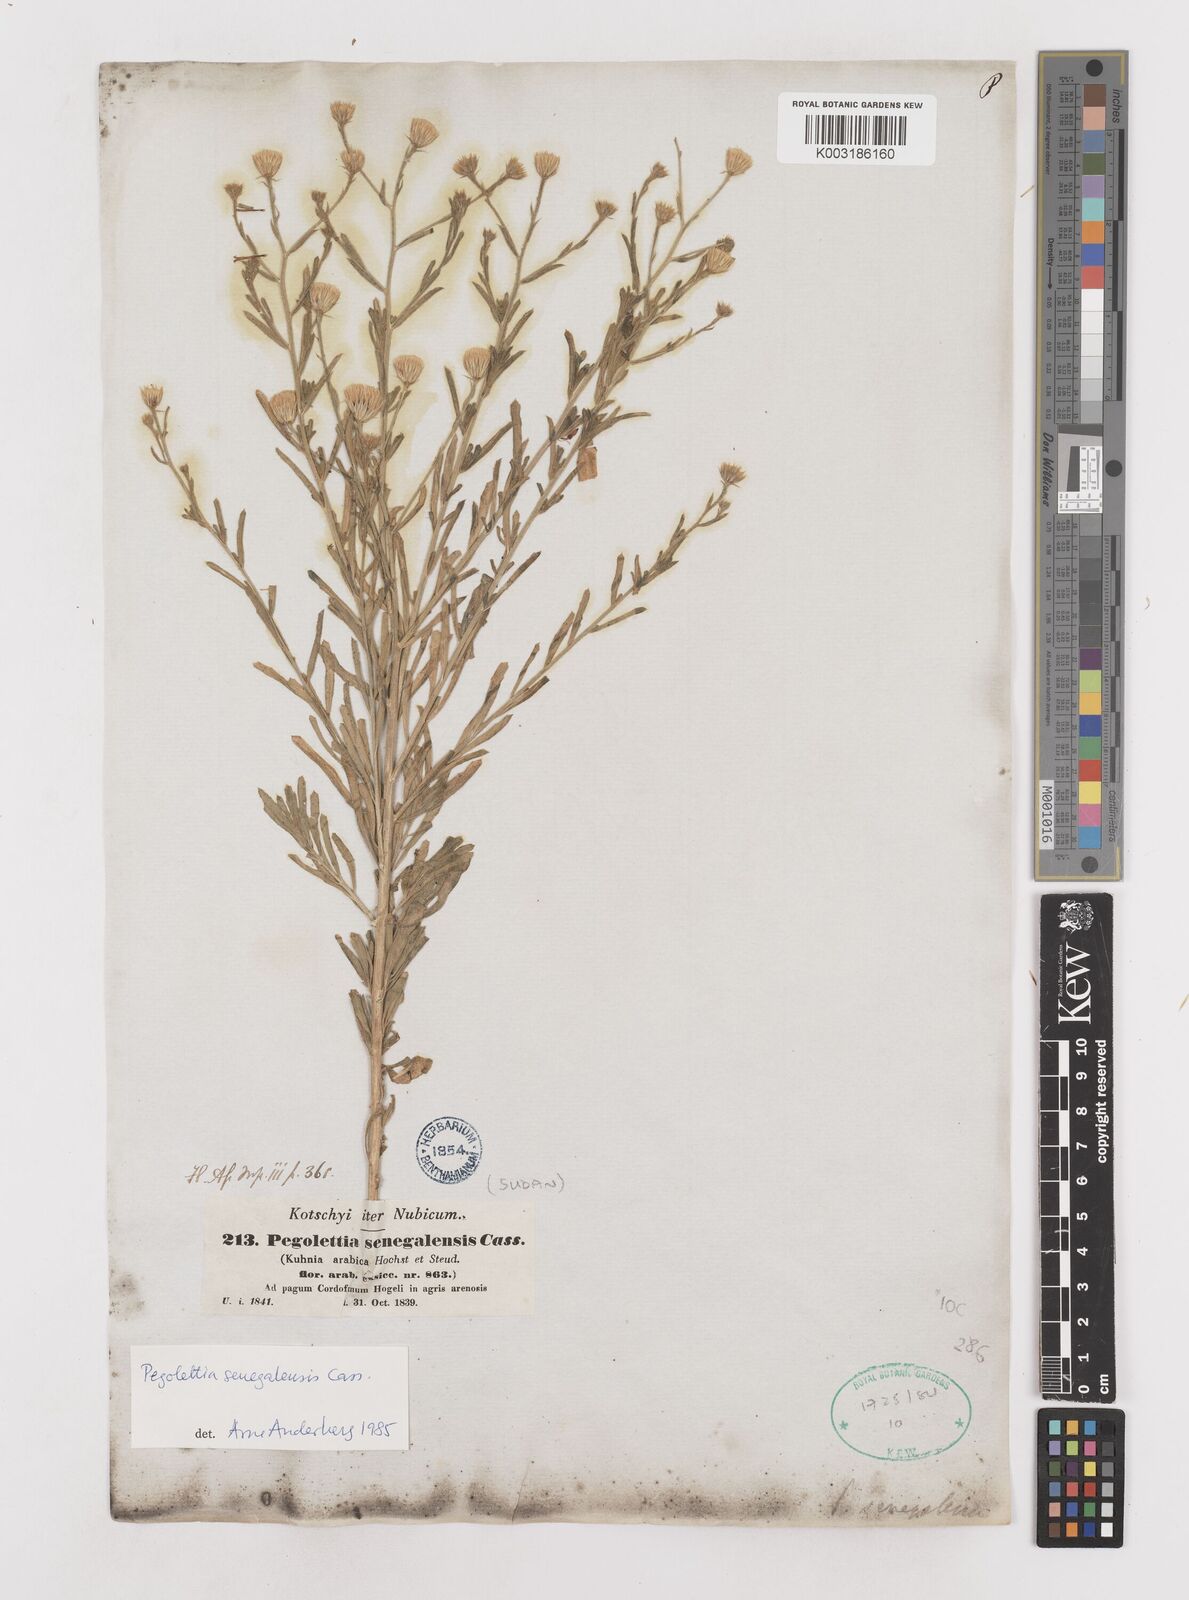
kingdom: Plantae
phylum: Tracheophyta
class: Magnoliopsida
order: Asterales
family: Asteraceae
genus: Pegolettia
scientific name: Pegolettia senegalensis
